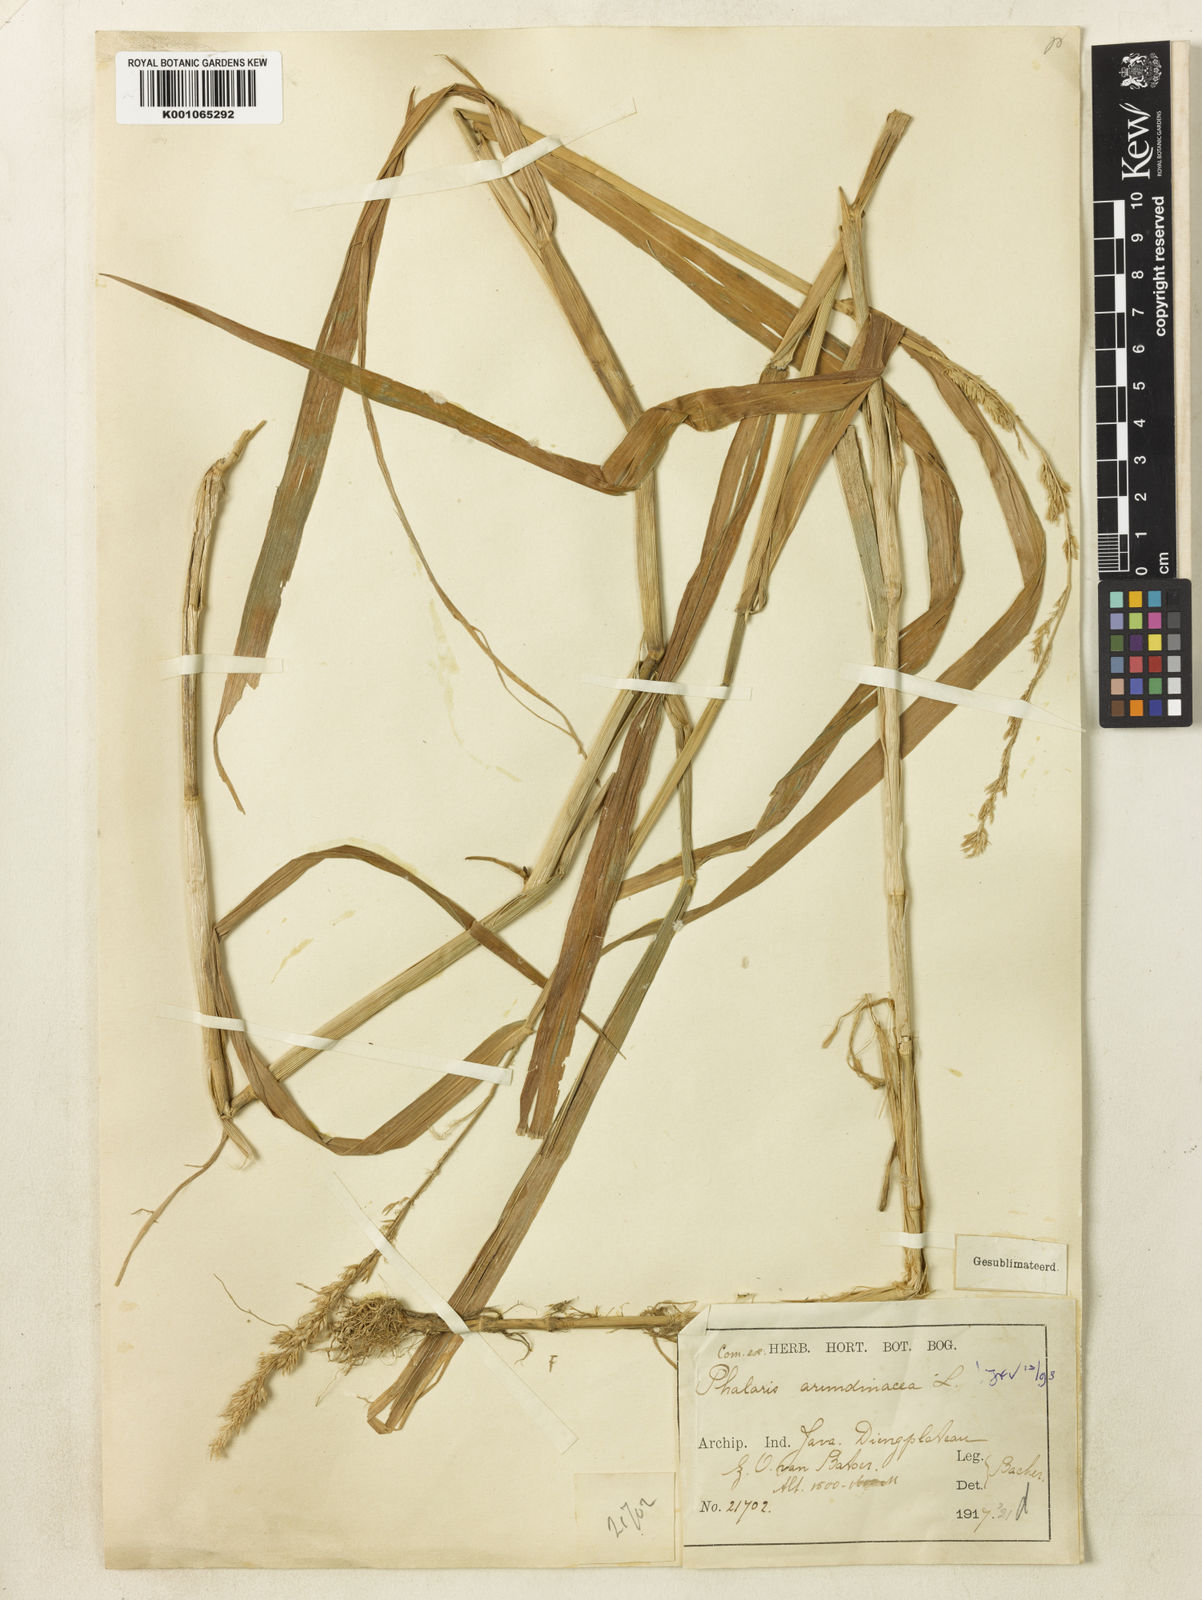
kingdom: Plantae
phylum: Tracheophyta
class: Liliopsida
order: Poales
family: Poaceae
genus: Phalaris
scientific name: Phalaris arundinacea
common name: Reed canary-grass
